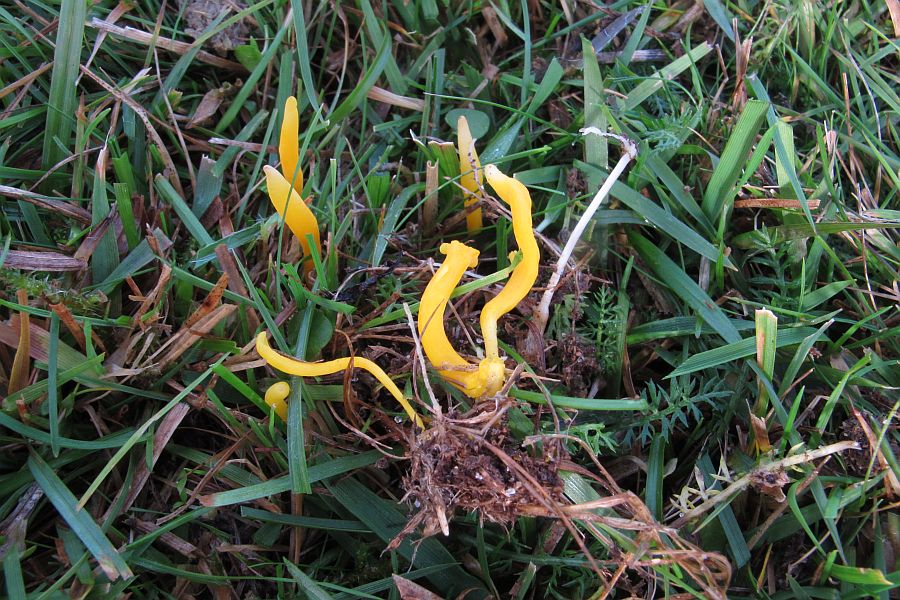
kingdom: Fungi
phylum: Basidiomycota
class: Agaricomycetes
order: Agaricales
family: Clavariaceae
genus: Clavulinopsis
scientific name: Clavulinopsis luteoalba
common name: abrikos-køllesvamp
